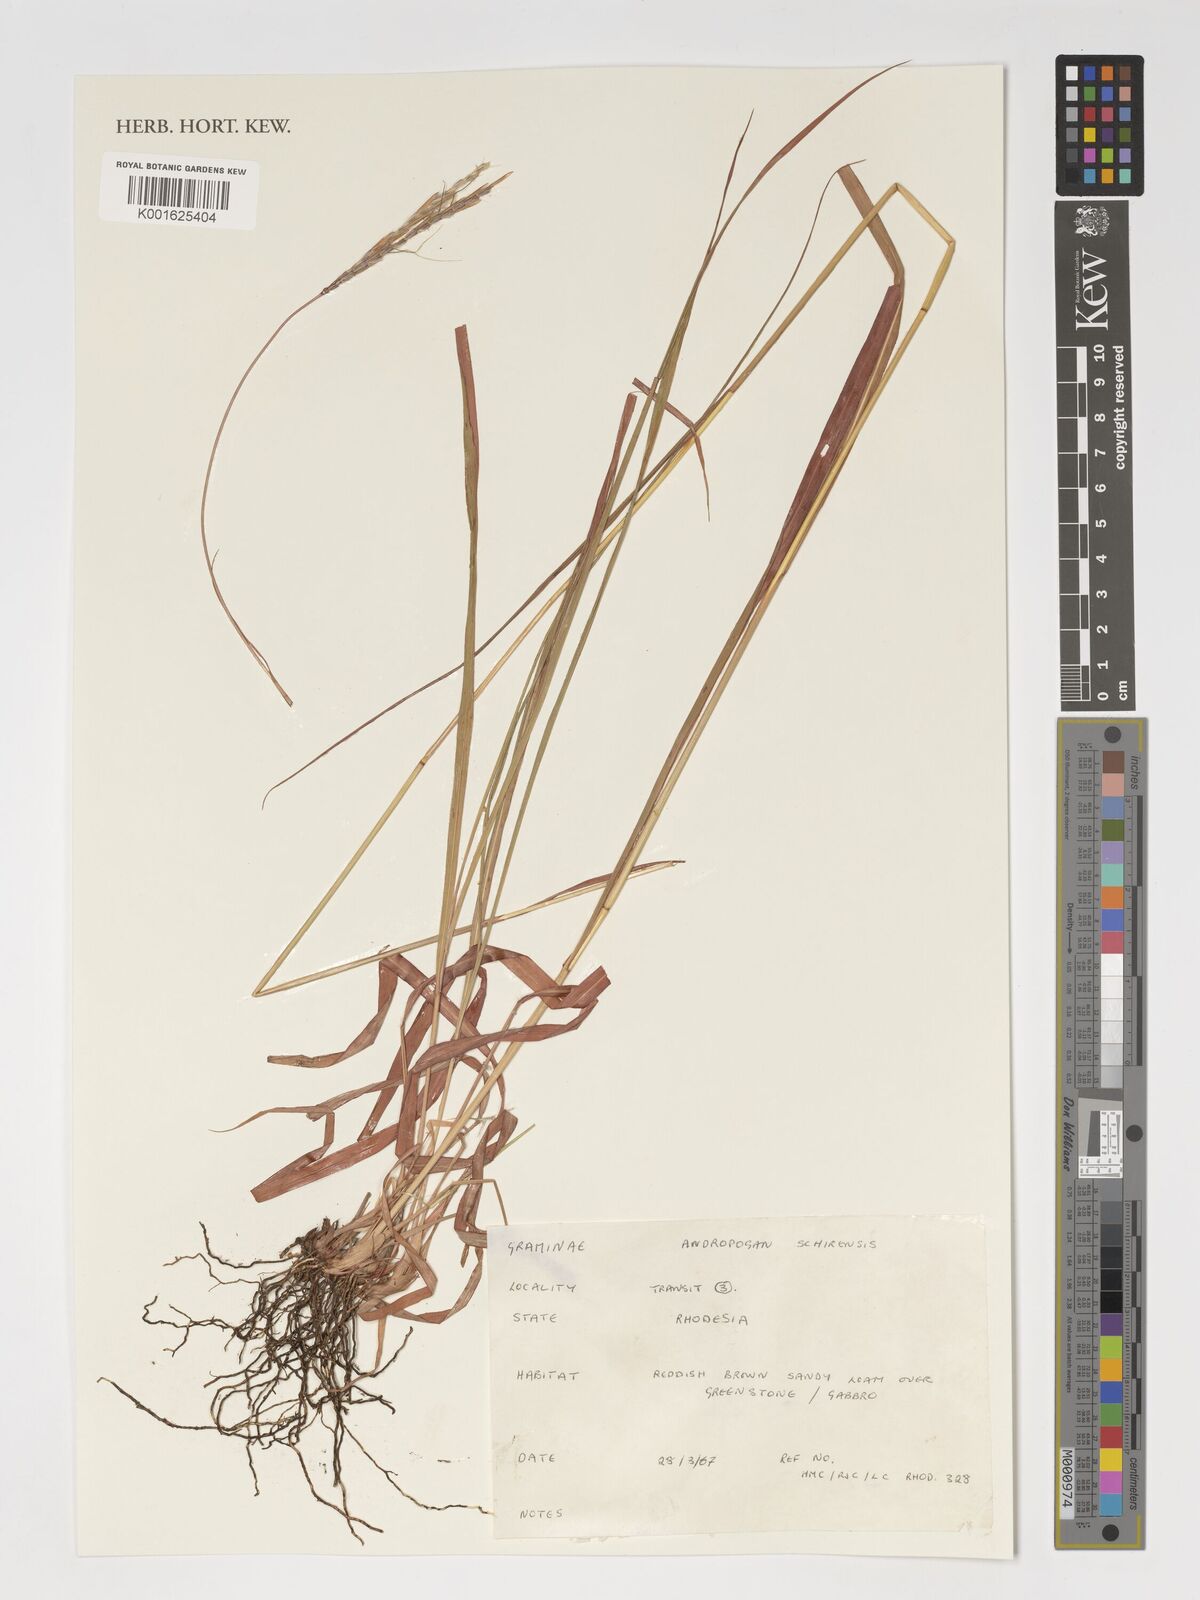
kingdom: Plantae
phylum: Tracheophyta
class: Liliopsida
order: Poales
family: Poaceae
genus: Andropogon
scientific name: Andropogon schirensis
